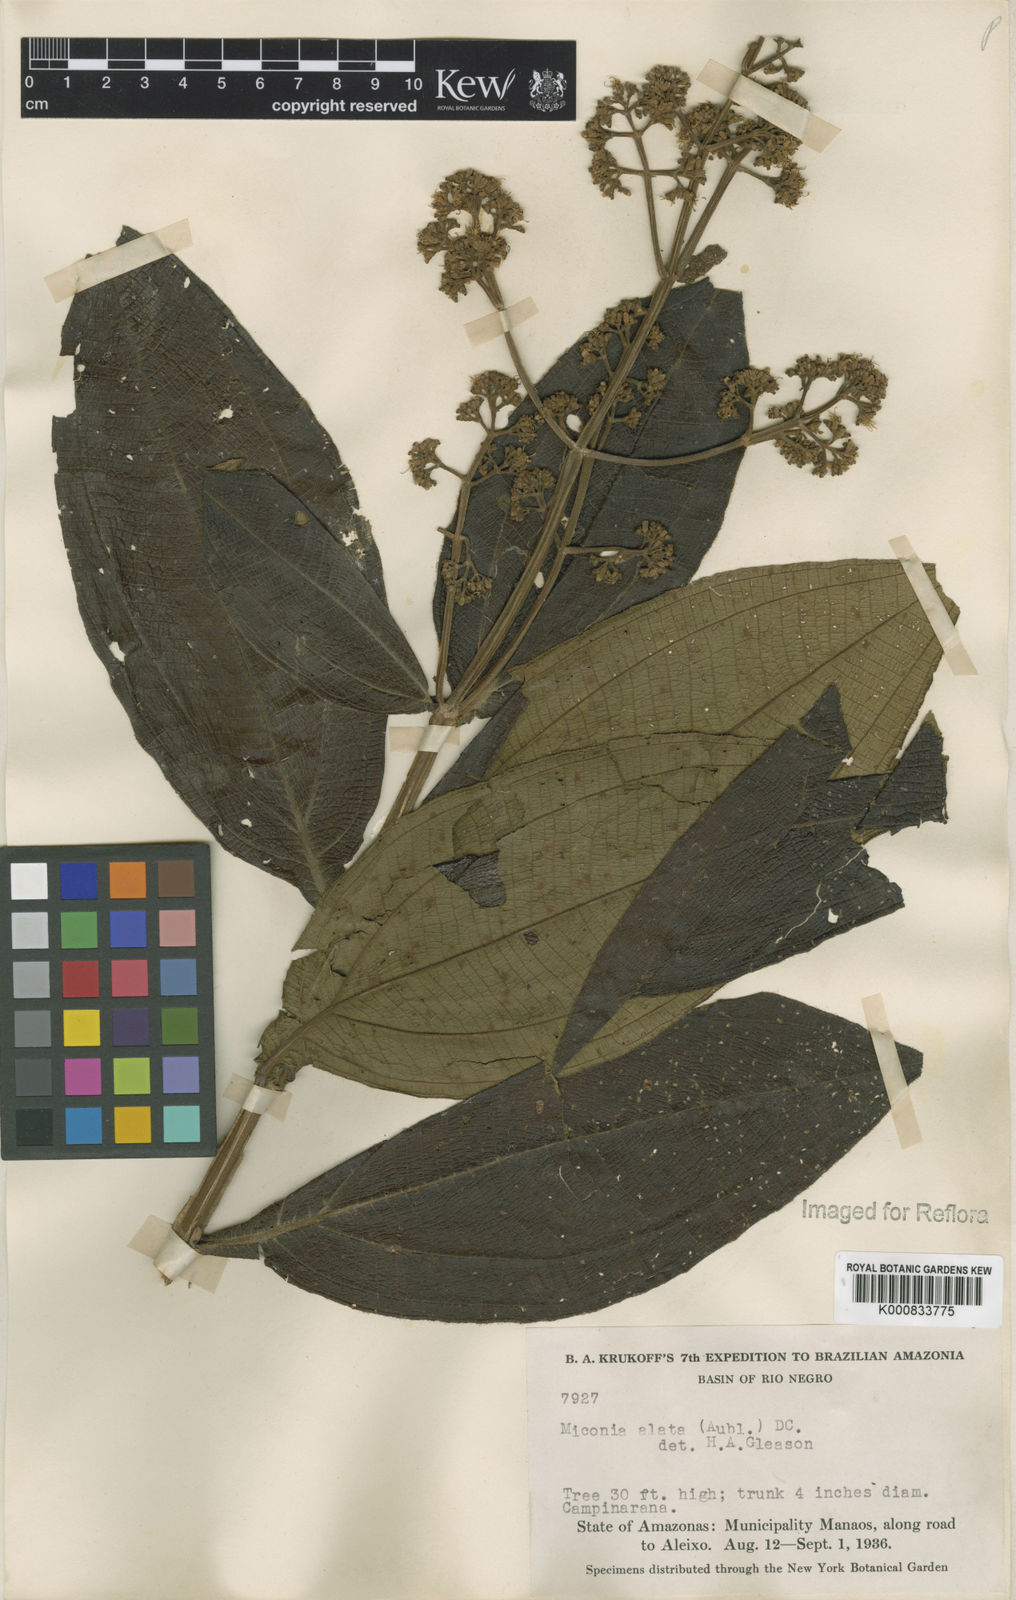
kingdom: Plantae
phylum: Tracheophyta
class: Magnoliopsida
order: Myrtales
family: Melastomataceae
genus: Miconia
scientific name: Miconia alata
